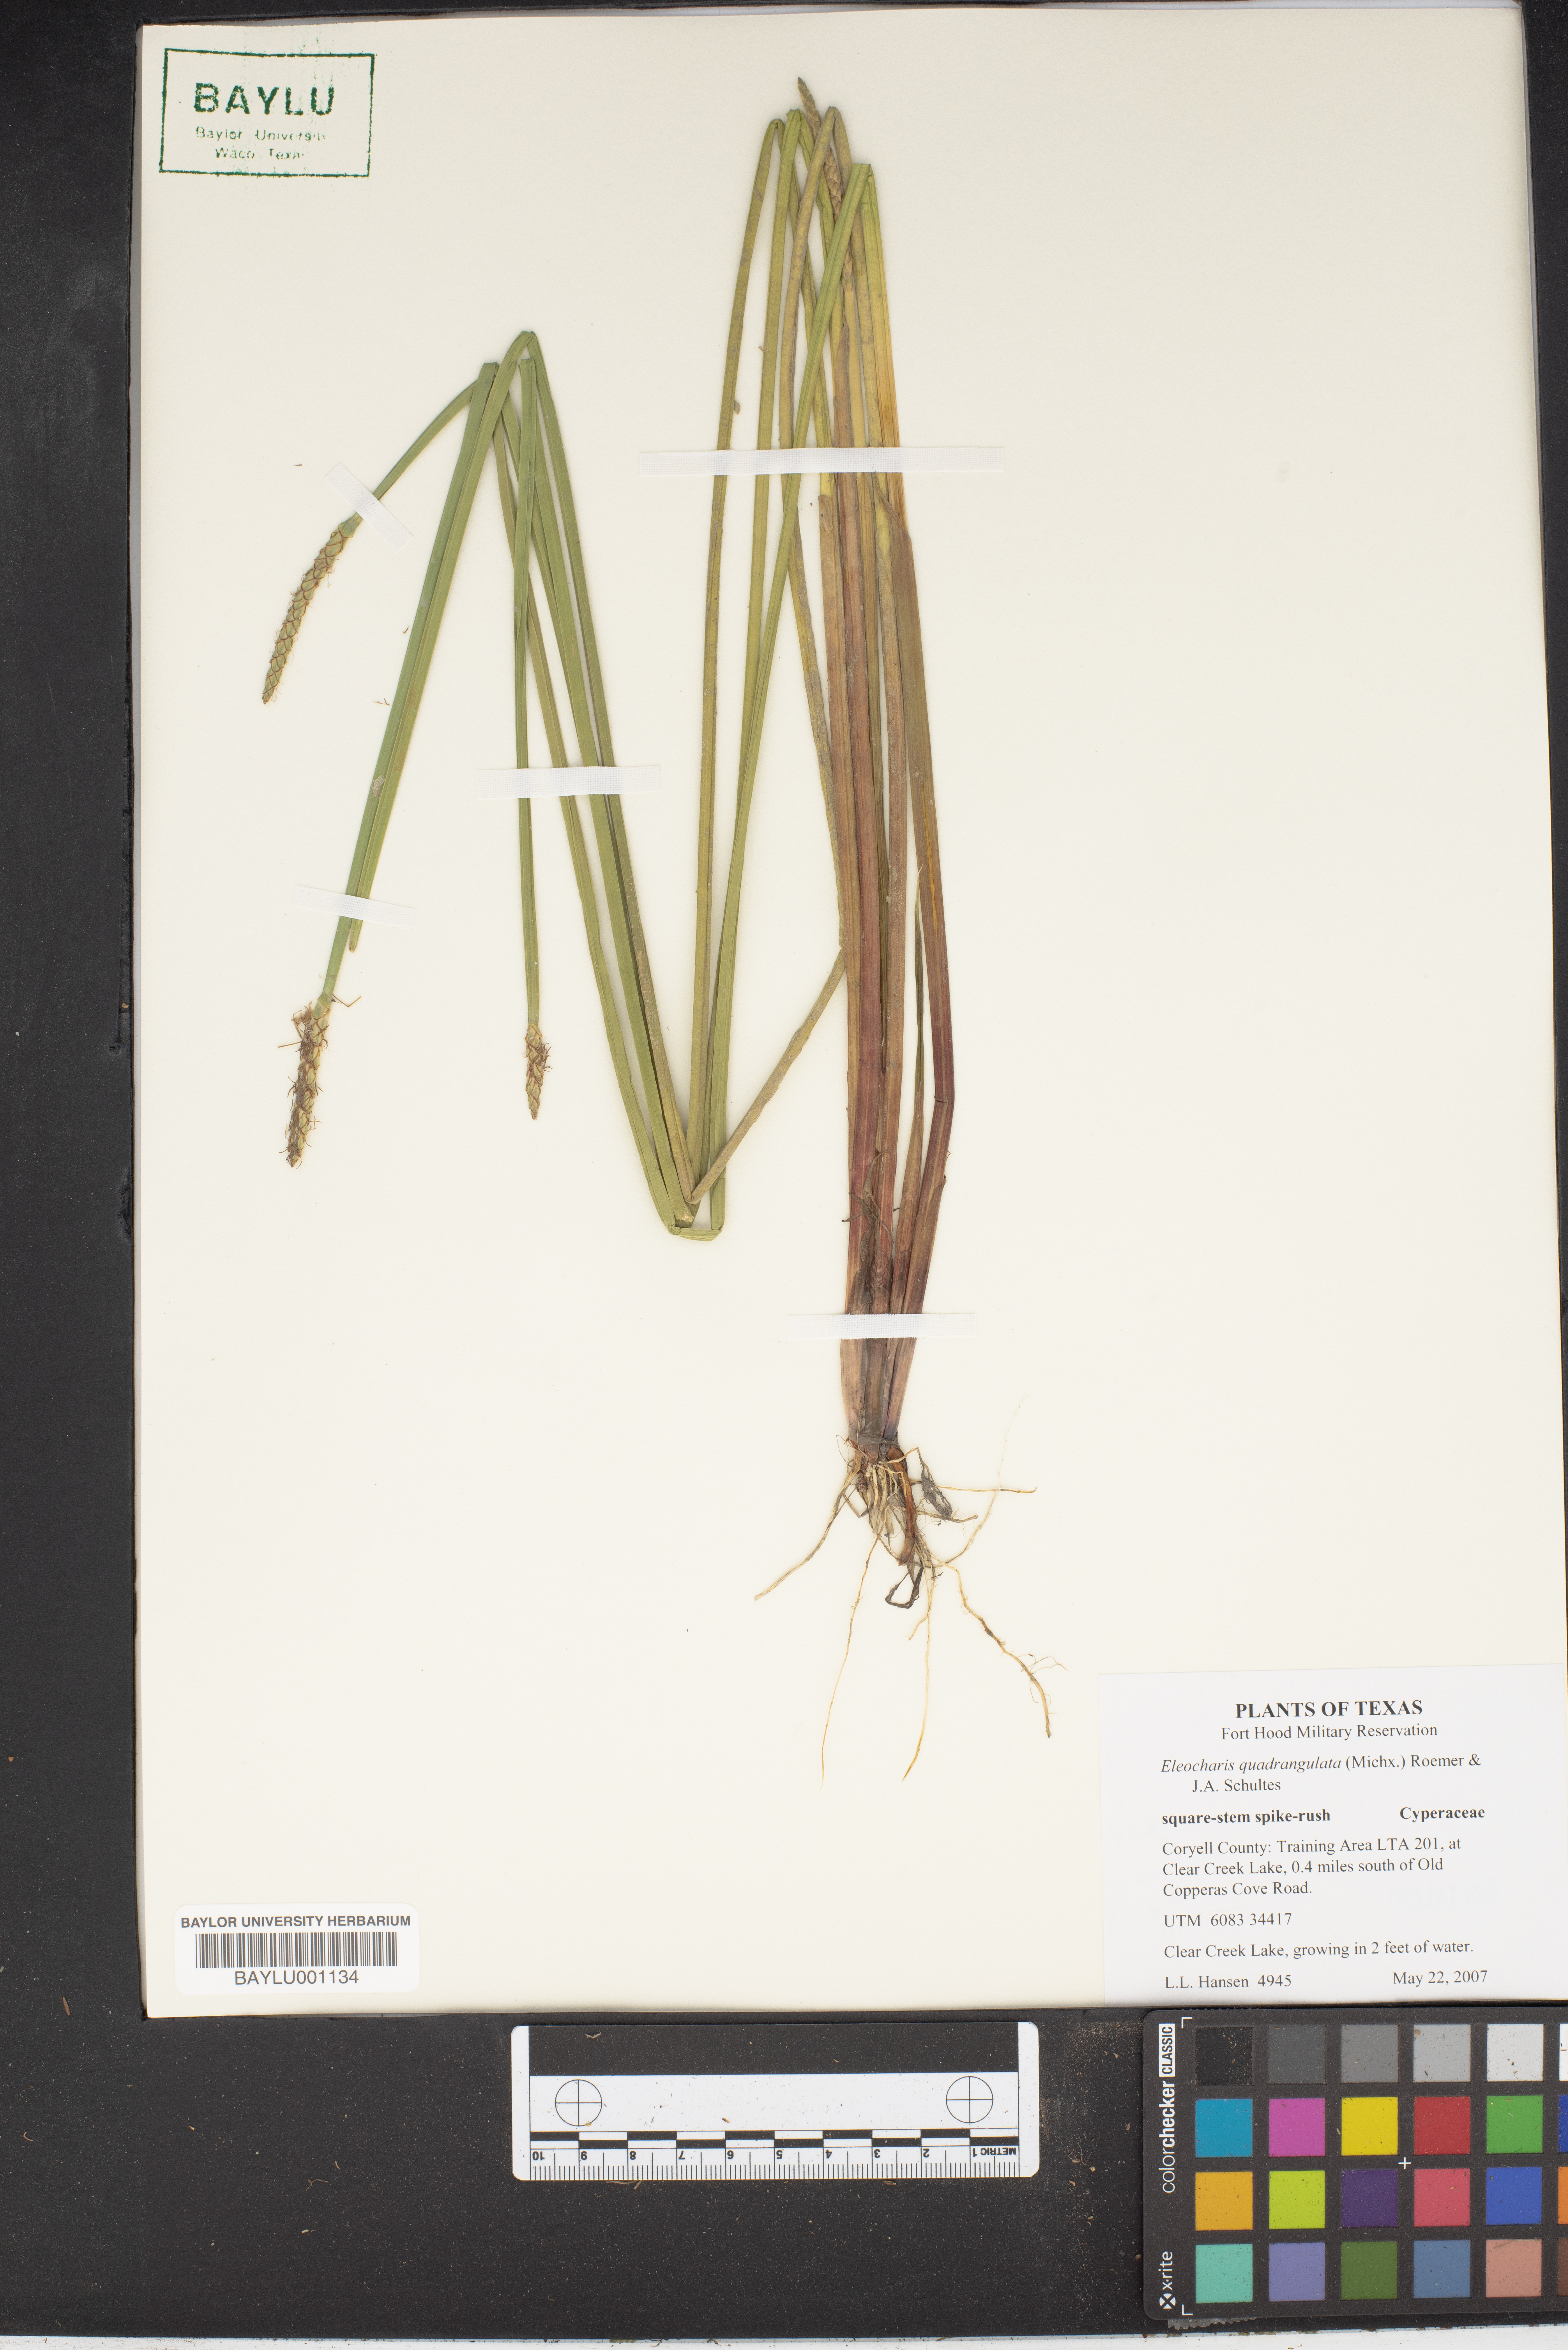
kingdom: Plantae
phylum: Tracheophyta
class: Liliopsida
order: Poales
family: Cyperaceae
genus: Eleocharis
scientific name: Eleocharis quadrangulata
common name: Square-stem spike-rush
